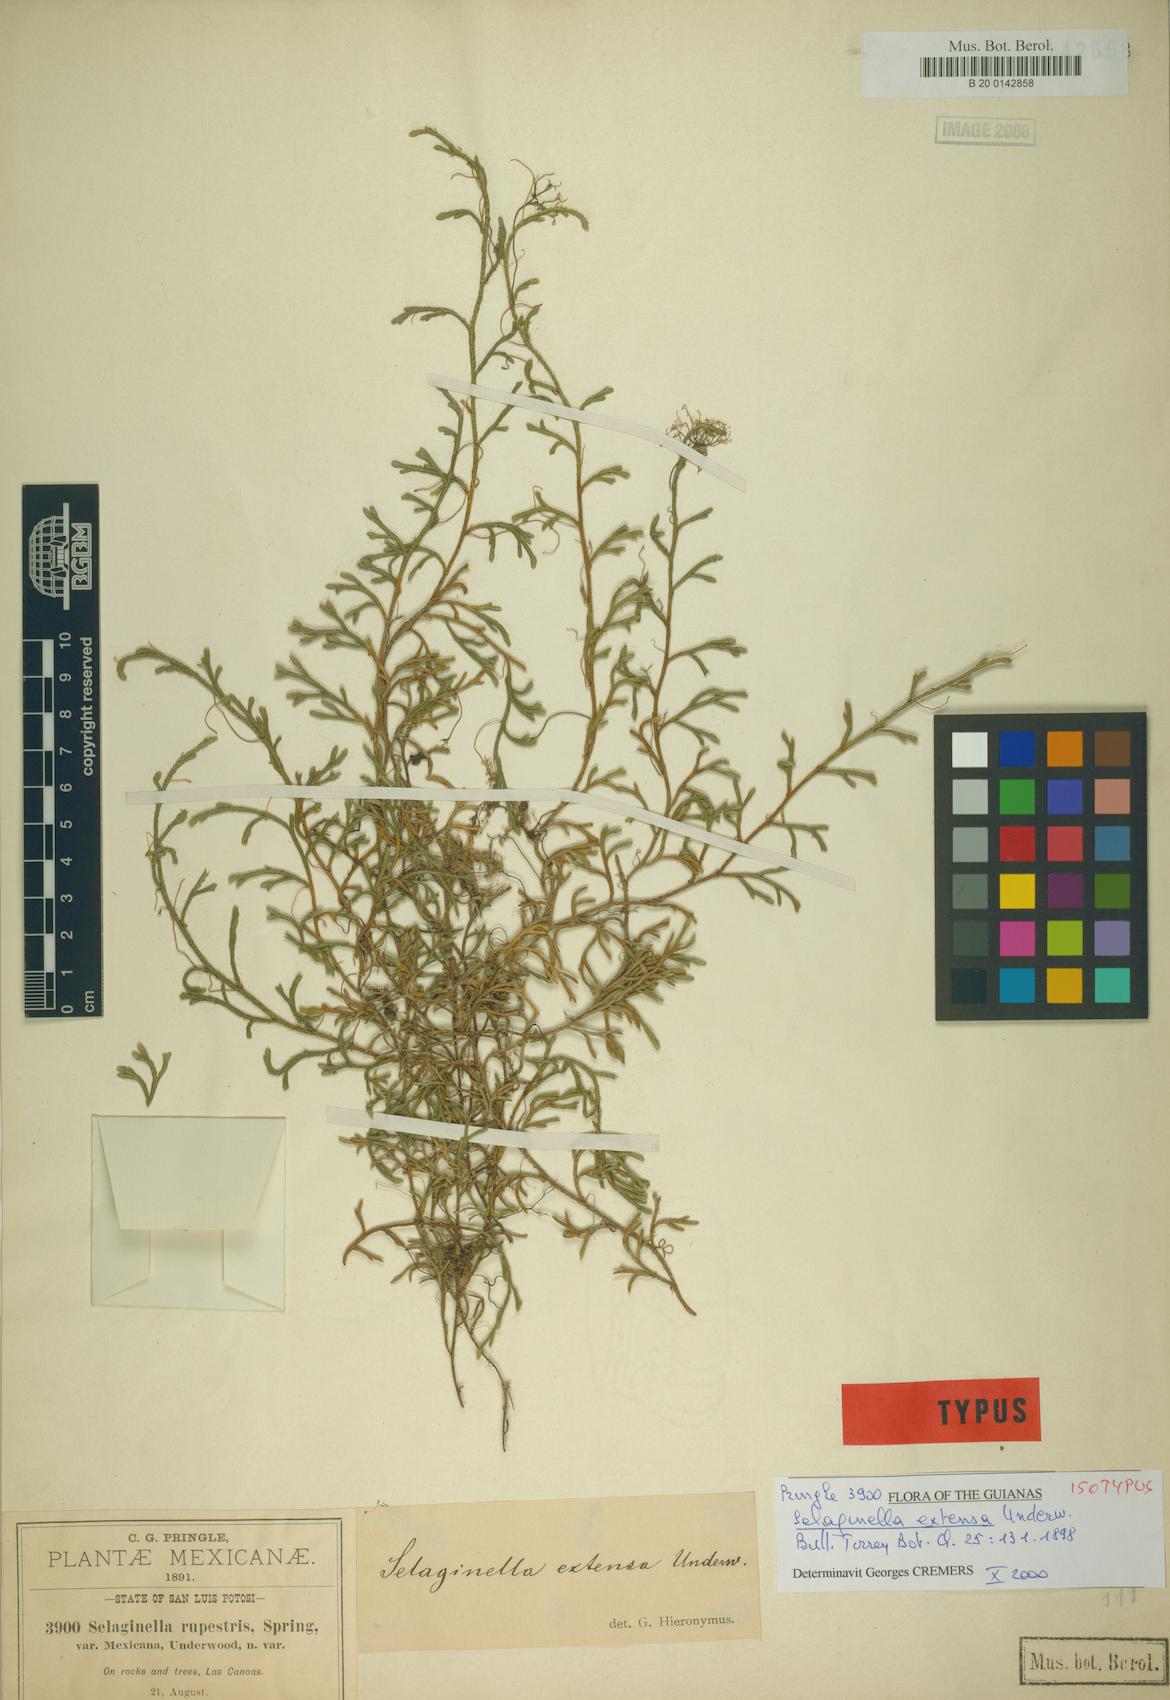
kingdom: Plantae
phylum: Tracheophyta
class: Lycopodiopsida
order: Selaginellales
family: Selaginellaceae
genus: Selaginella
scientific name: Selaginella extensa
